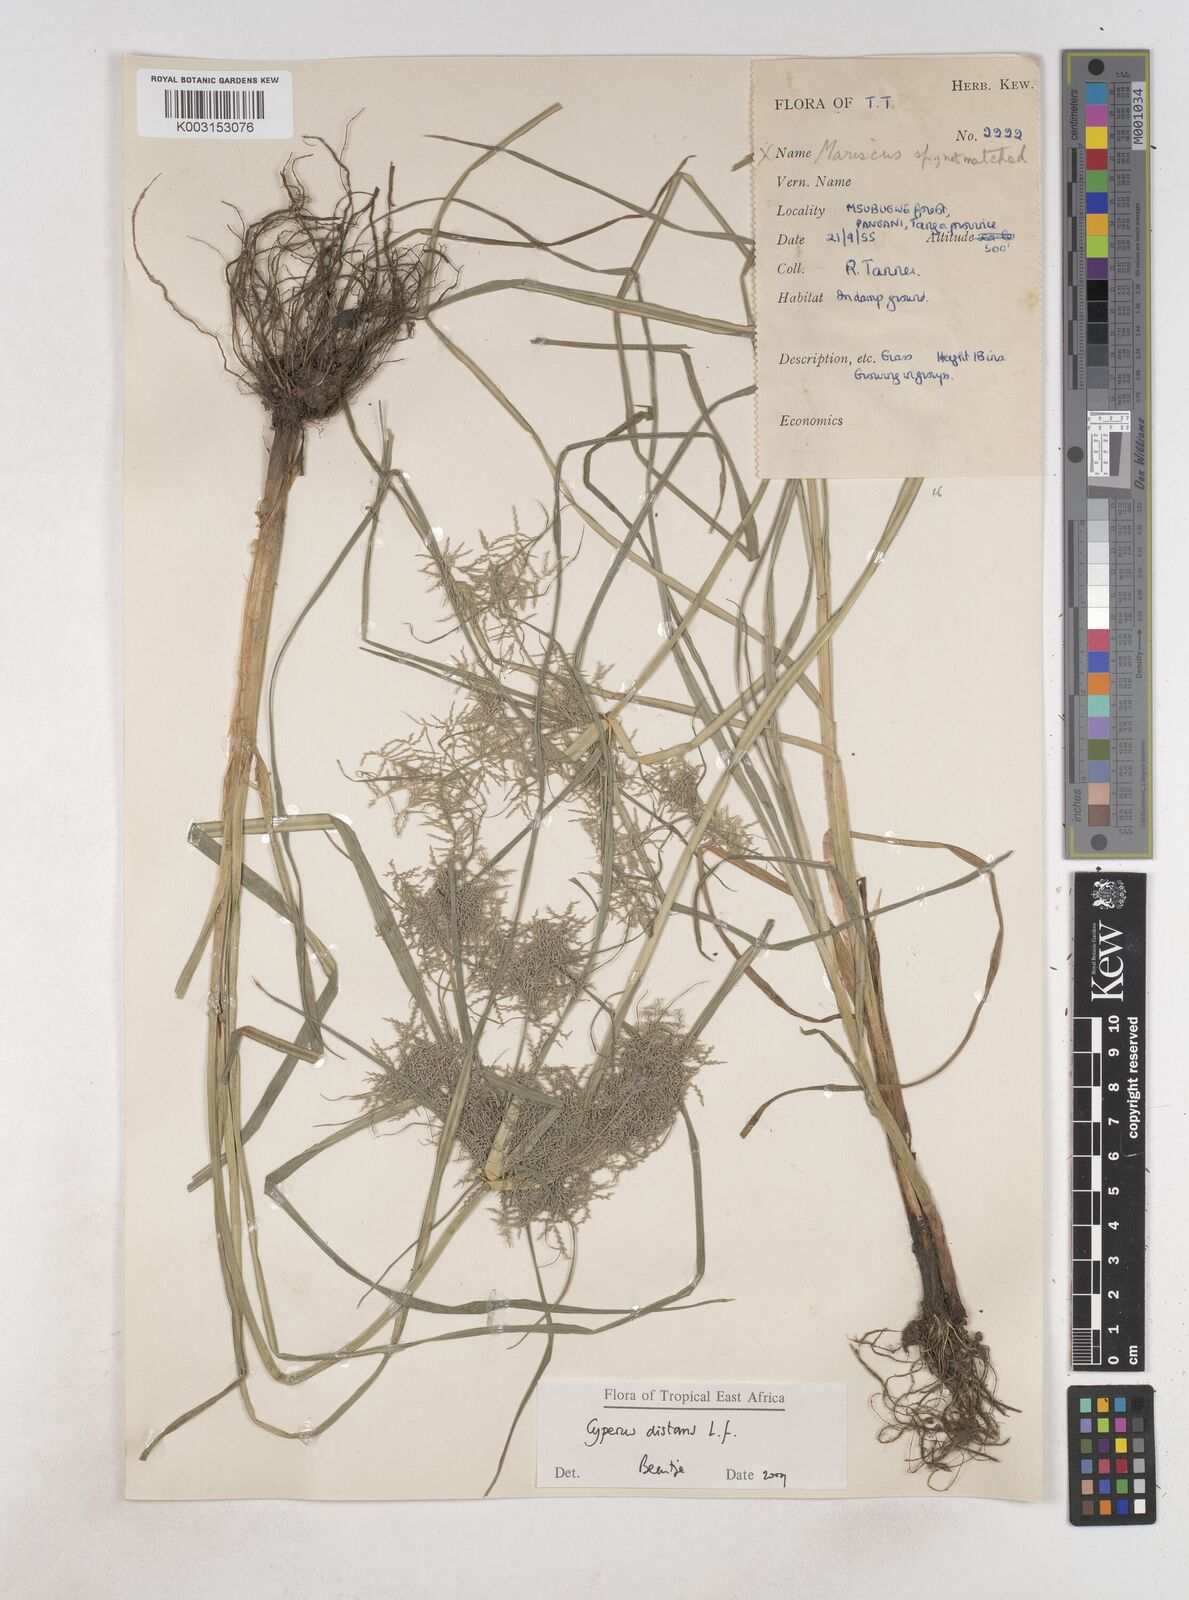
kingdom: Plantae
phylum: Tracheophyta
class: Liliopsida
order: Poales
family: Cyperaceae
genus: Cyperus
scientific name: Cyperus distans
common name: Slender cyperus
